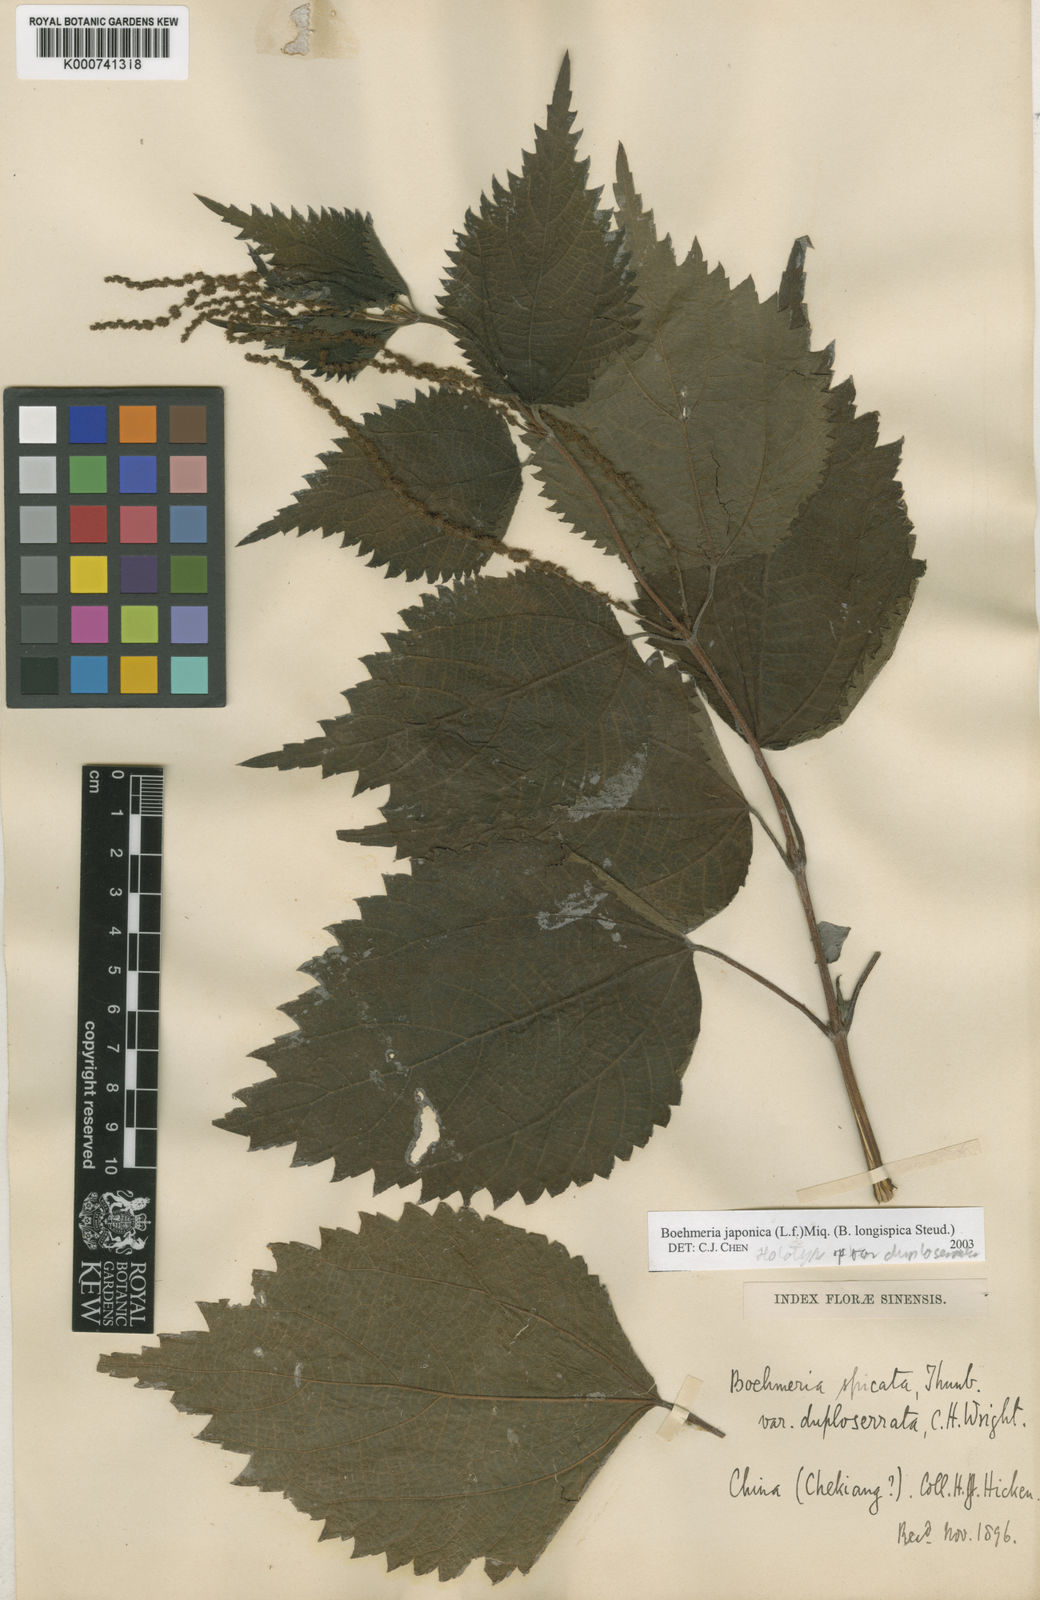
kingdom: Plantae
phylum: Tracheophyta
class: Magnoliopsida
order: Rosales
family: Urticaceae
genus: Boehmeria
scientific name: Boehmeria japonica
